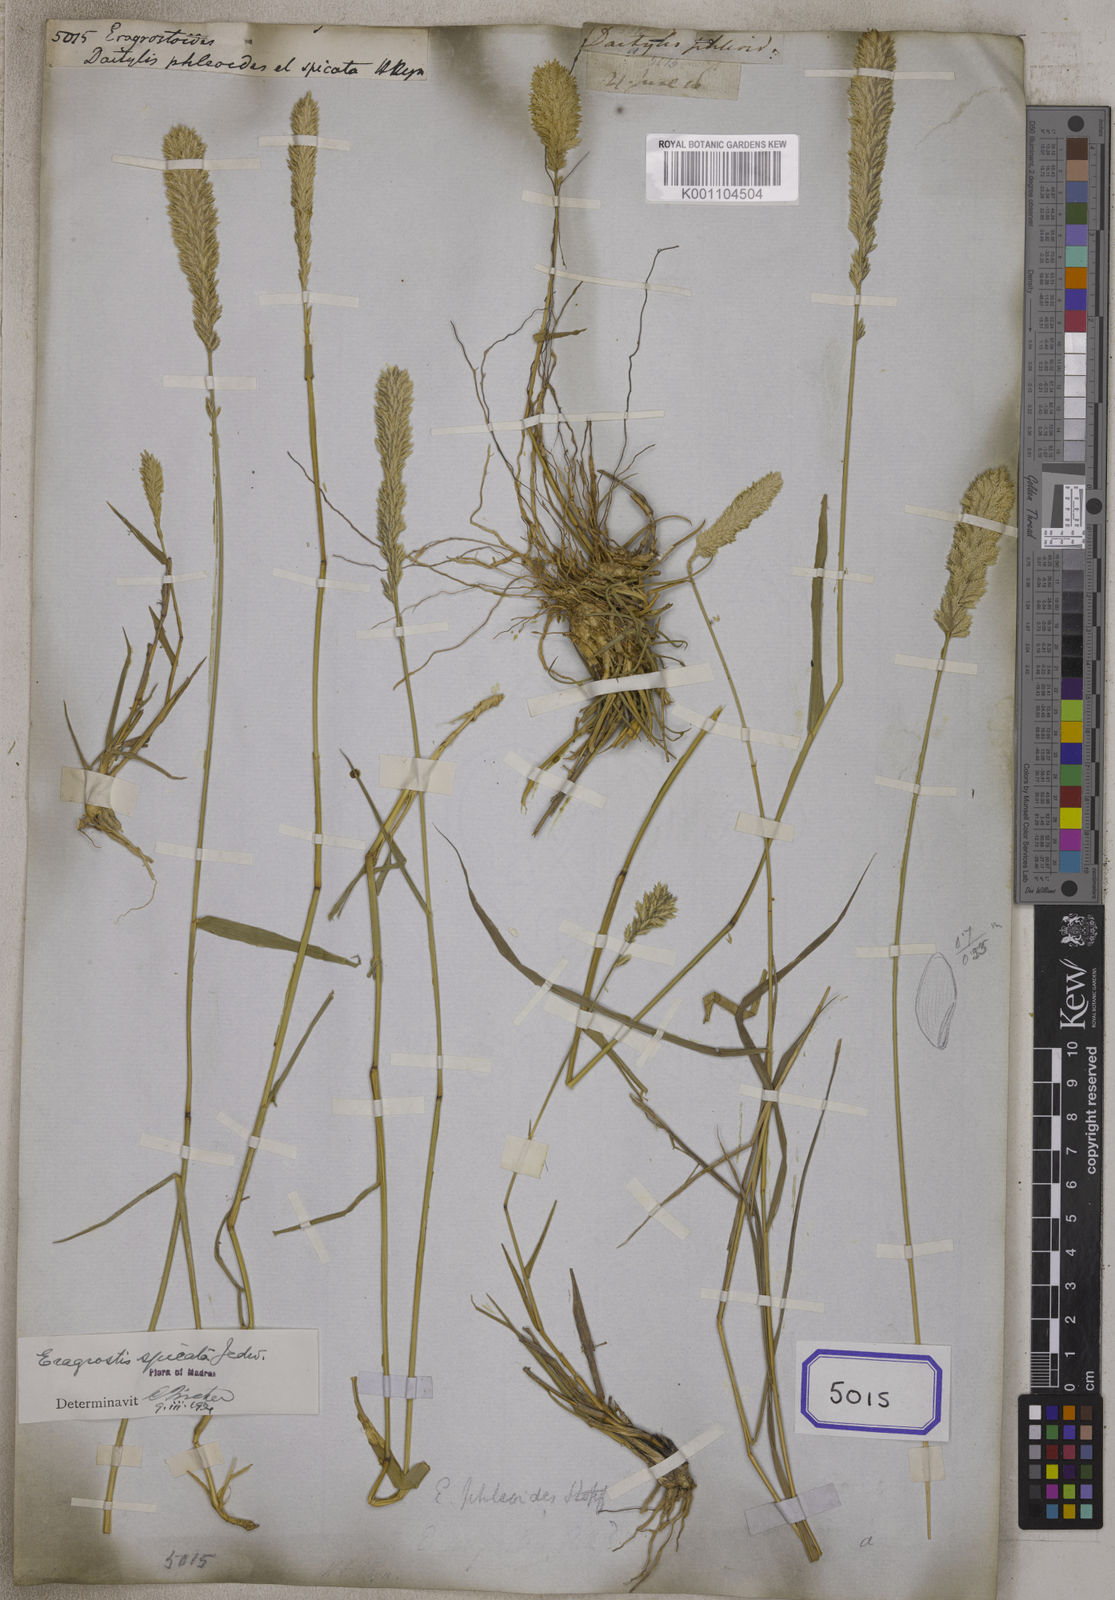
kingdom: Plantae
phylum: Tracheophyta
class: Liliopsida
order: Poales
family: Poaceae
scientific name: Poaceae
